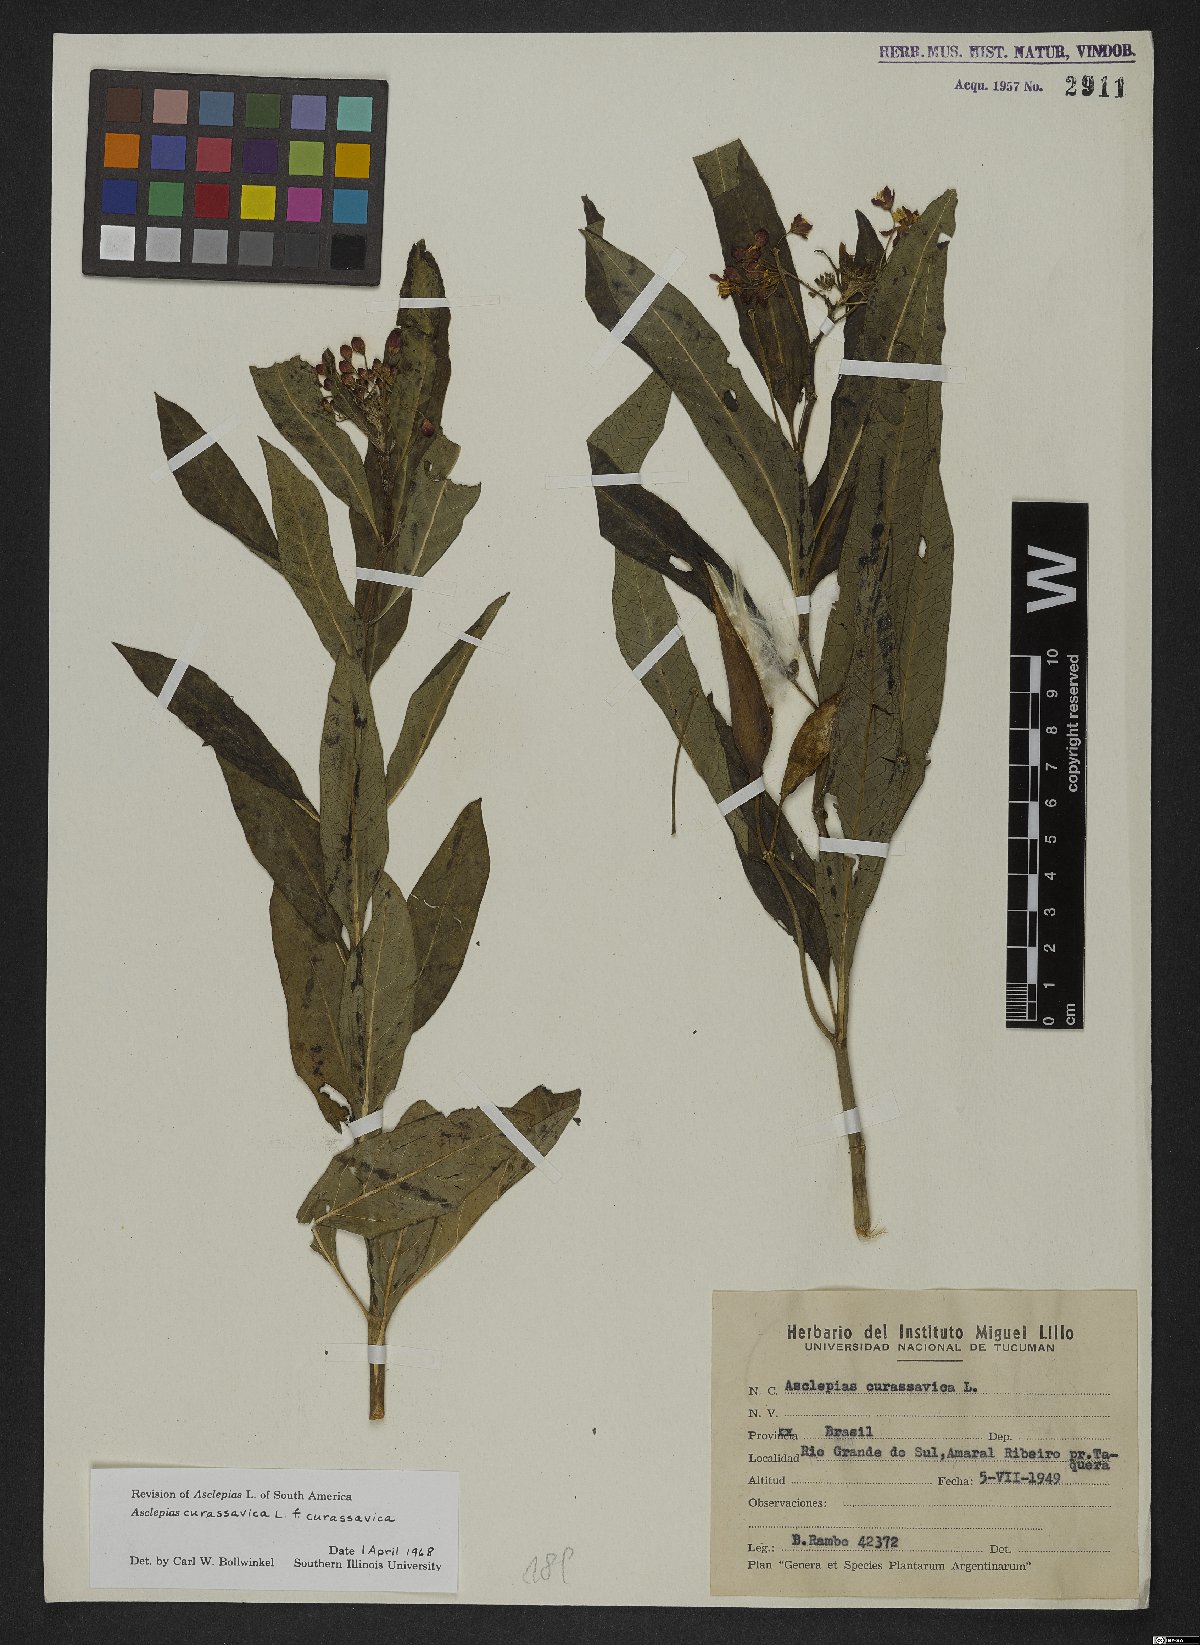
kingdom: Plantae
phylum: Tracheophyta
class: Magnoliopsida
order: Gentianales
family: Apocynaceae
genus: Asclepias
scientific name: Asclepias curassavica
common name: Bloodflower
